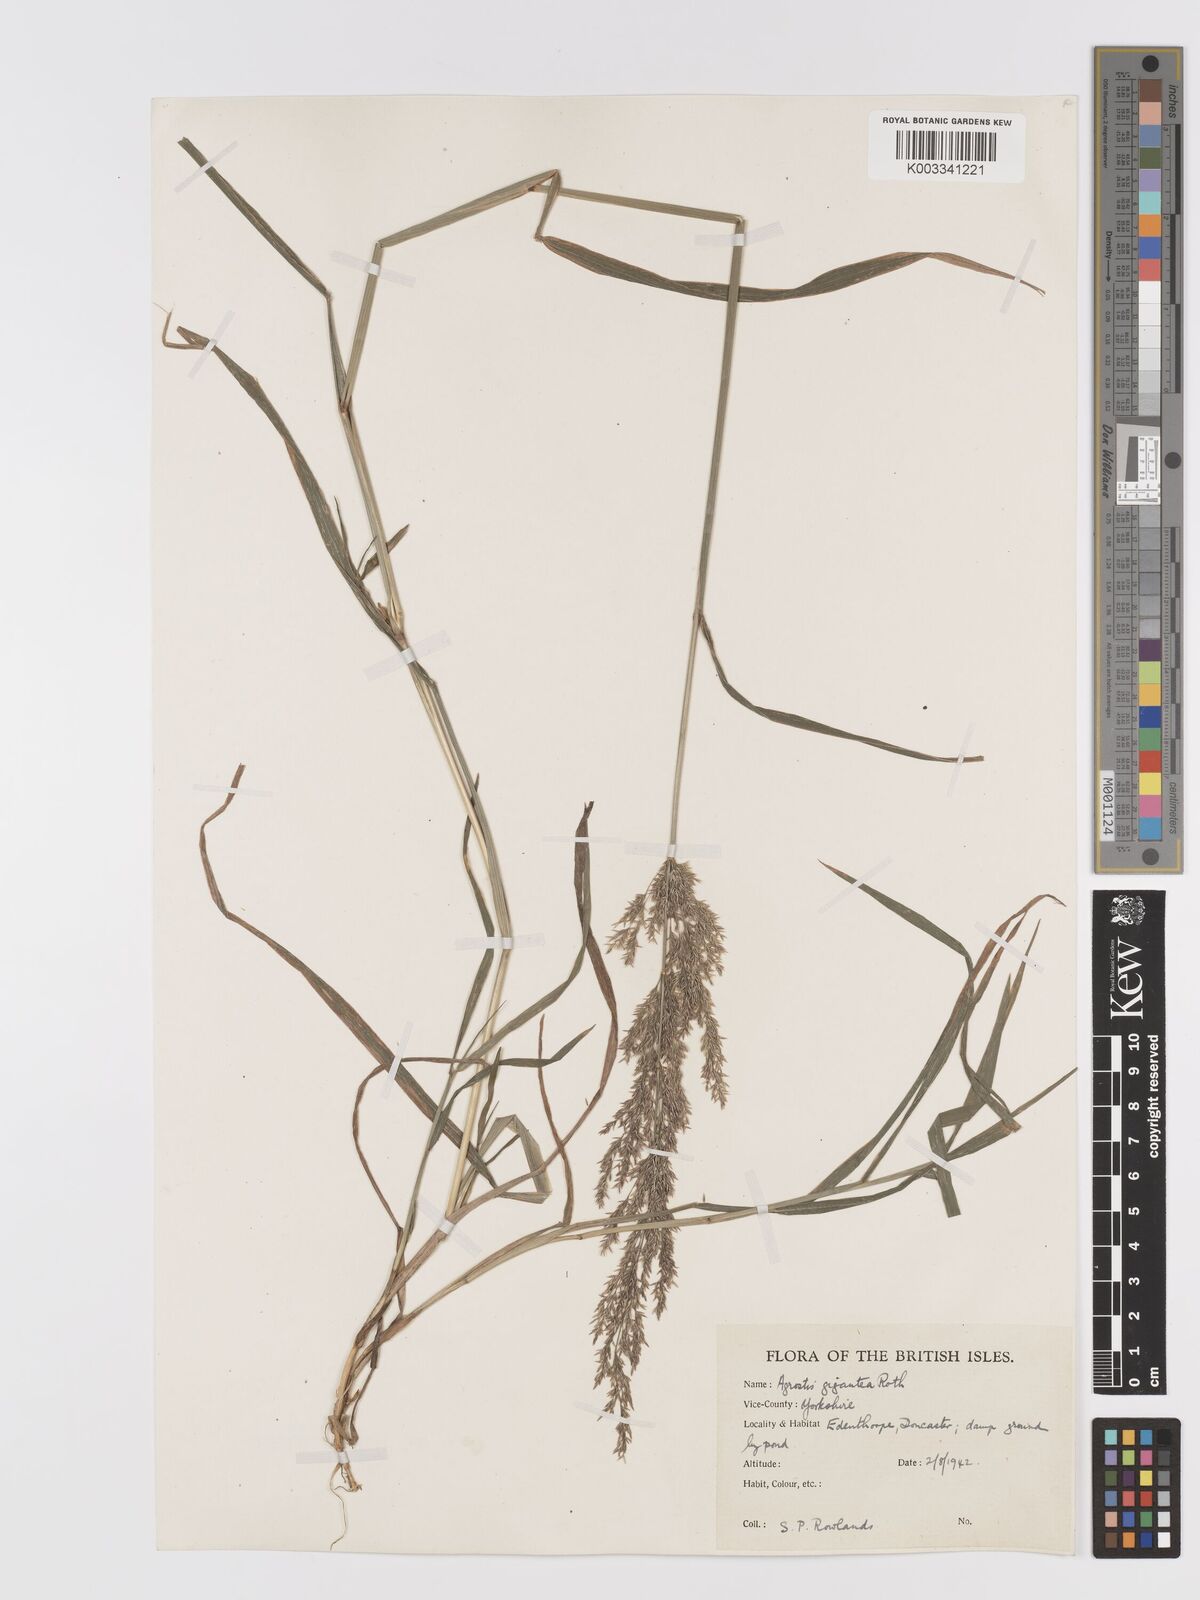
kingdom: Plantae
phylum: Tracheophyta
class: Liliopsida
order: Poales
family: Poaceae
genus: Agrostis
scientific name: Agrostis gigantea
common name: Black bent
